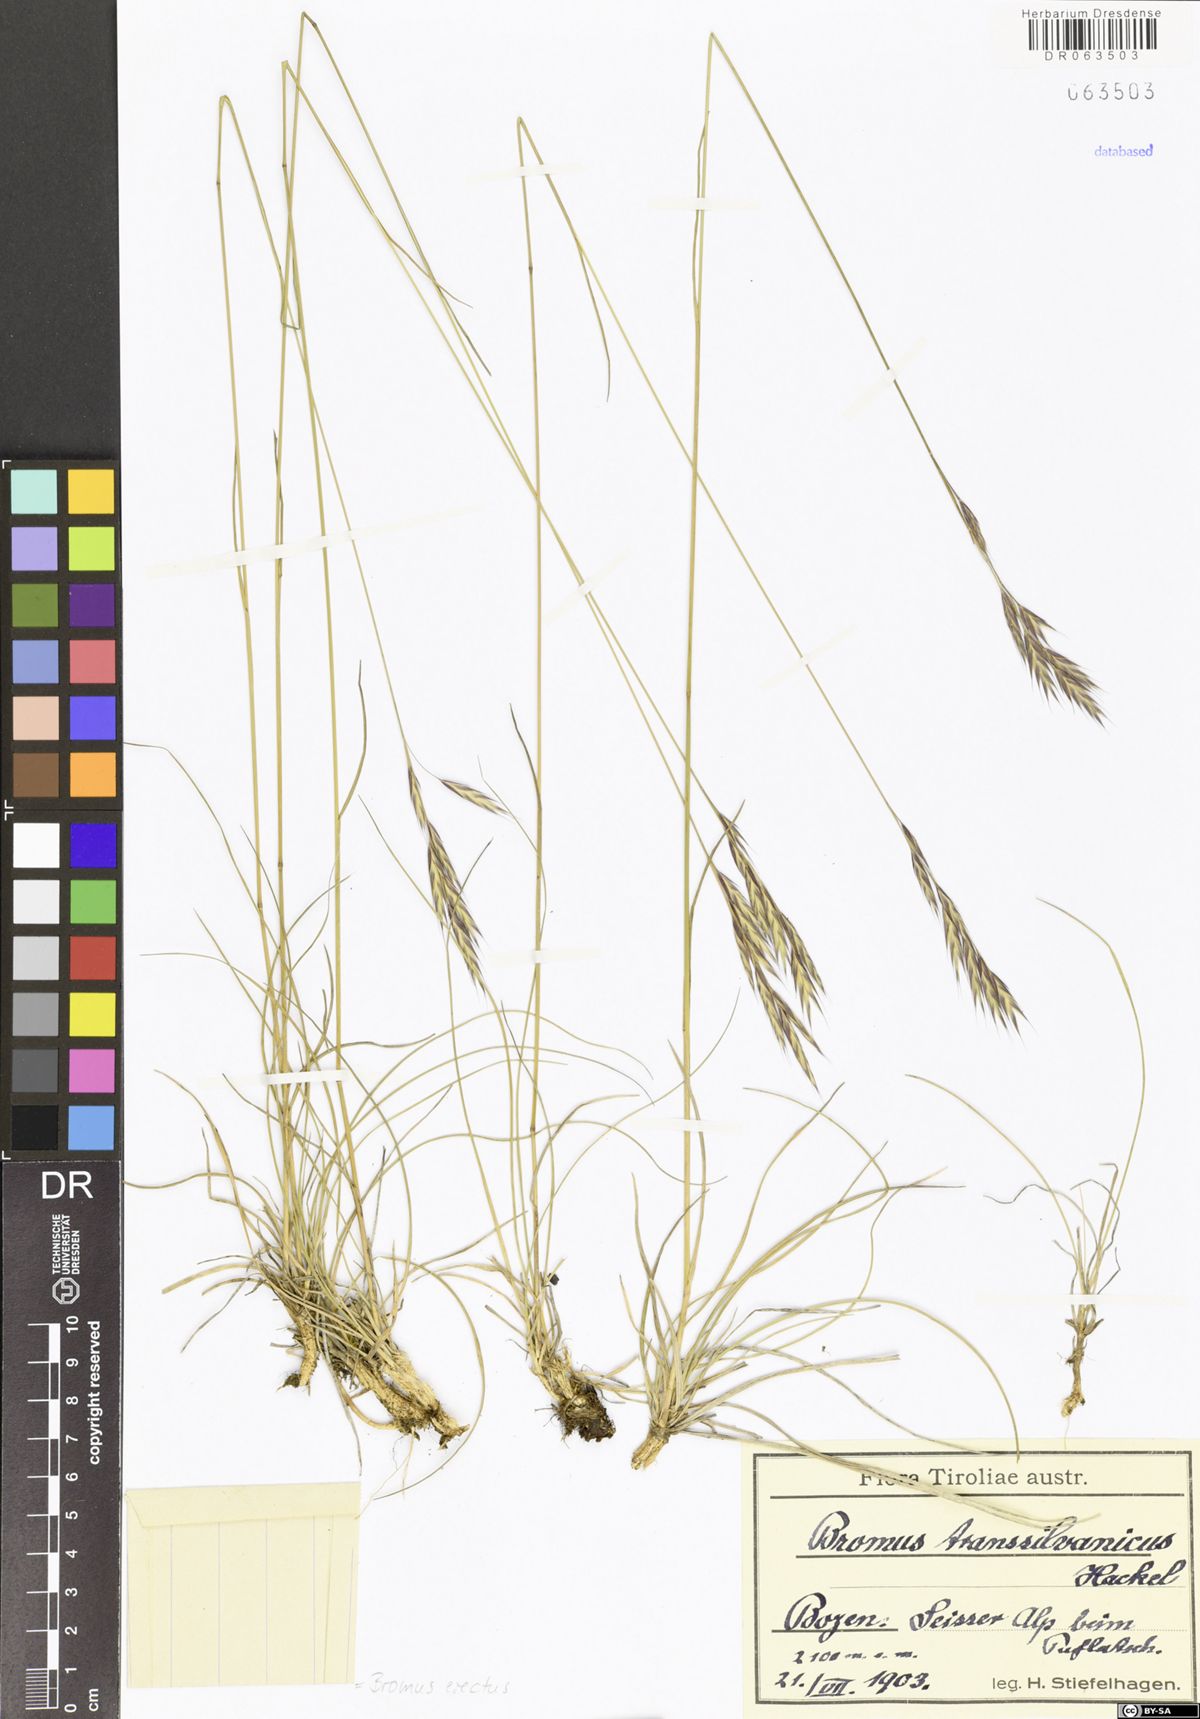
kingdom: Plantae
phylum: Tracheophyta
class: Liliopsida
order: Poales
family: Poaceae
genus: Bromus
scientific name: Bromus erectus
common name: Erect brome
